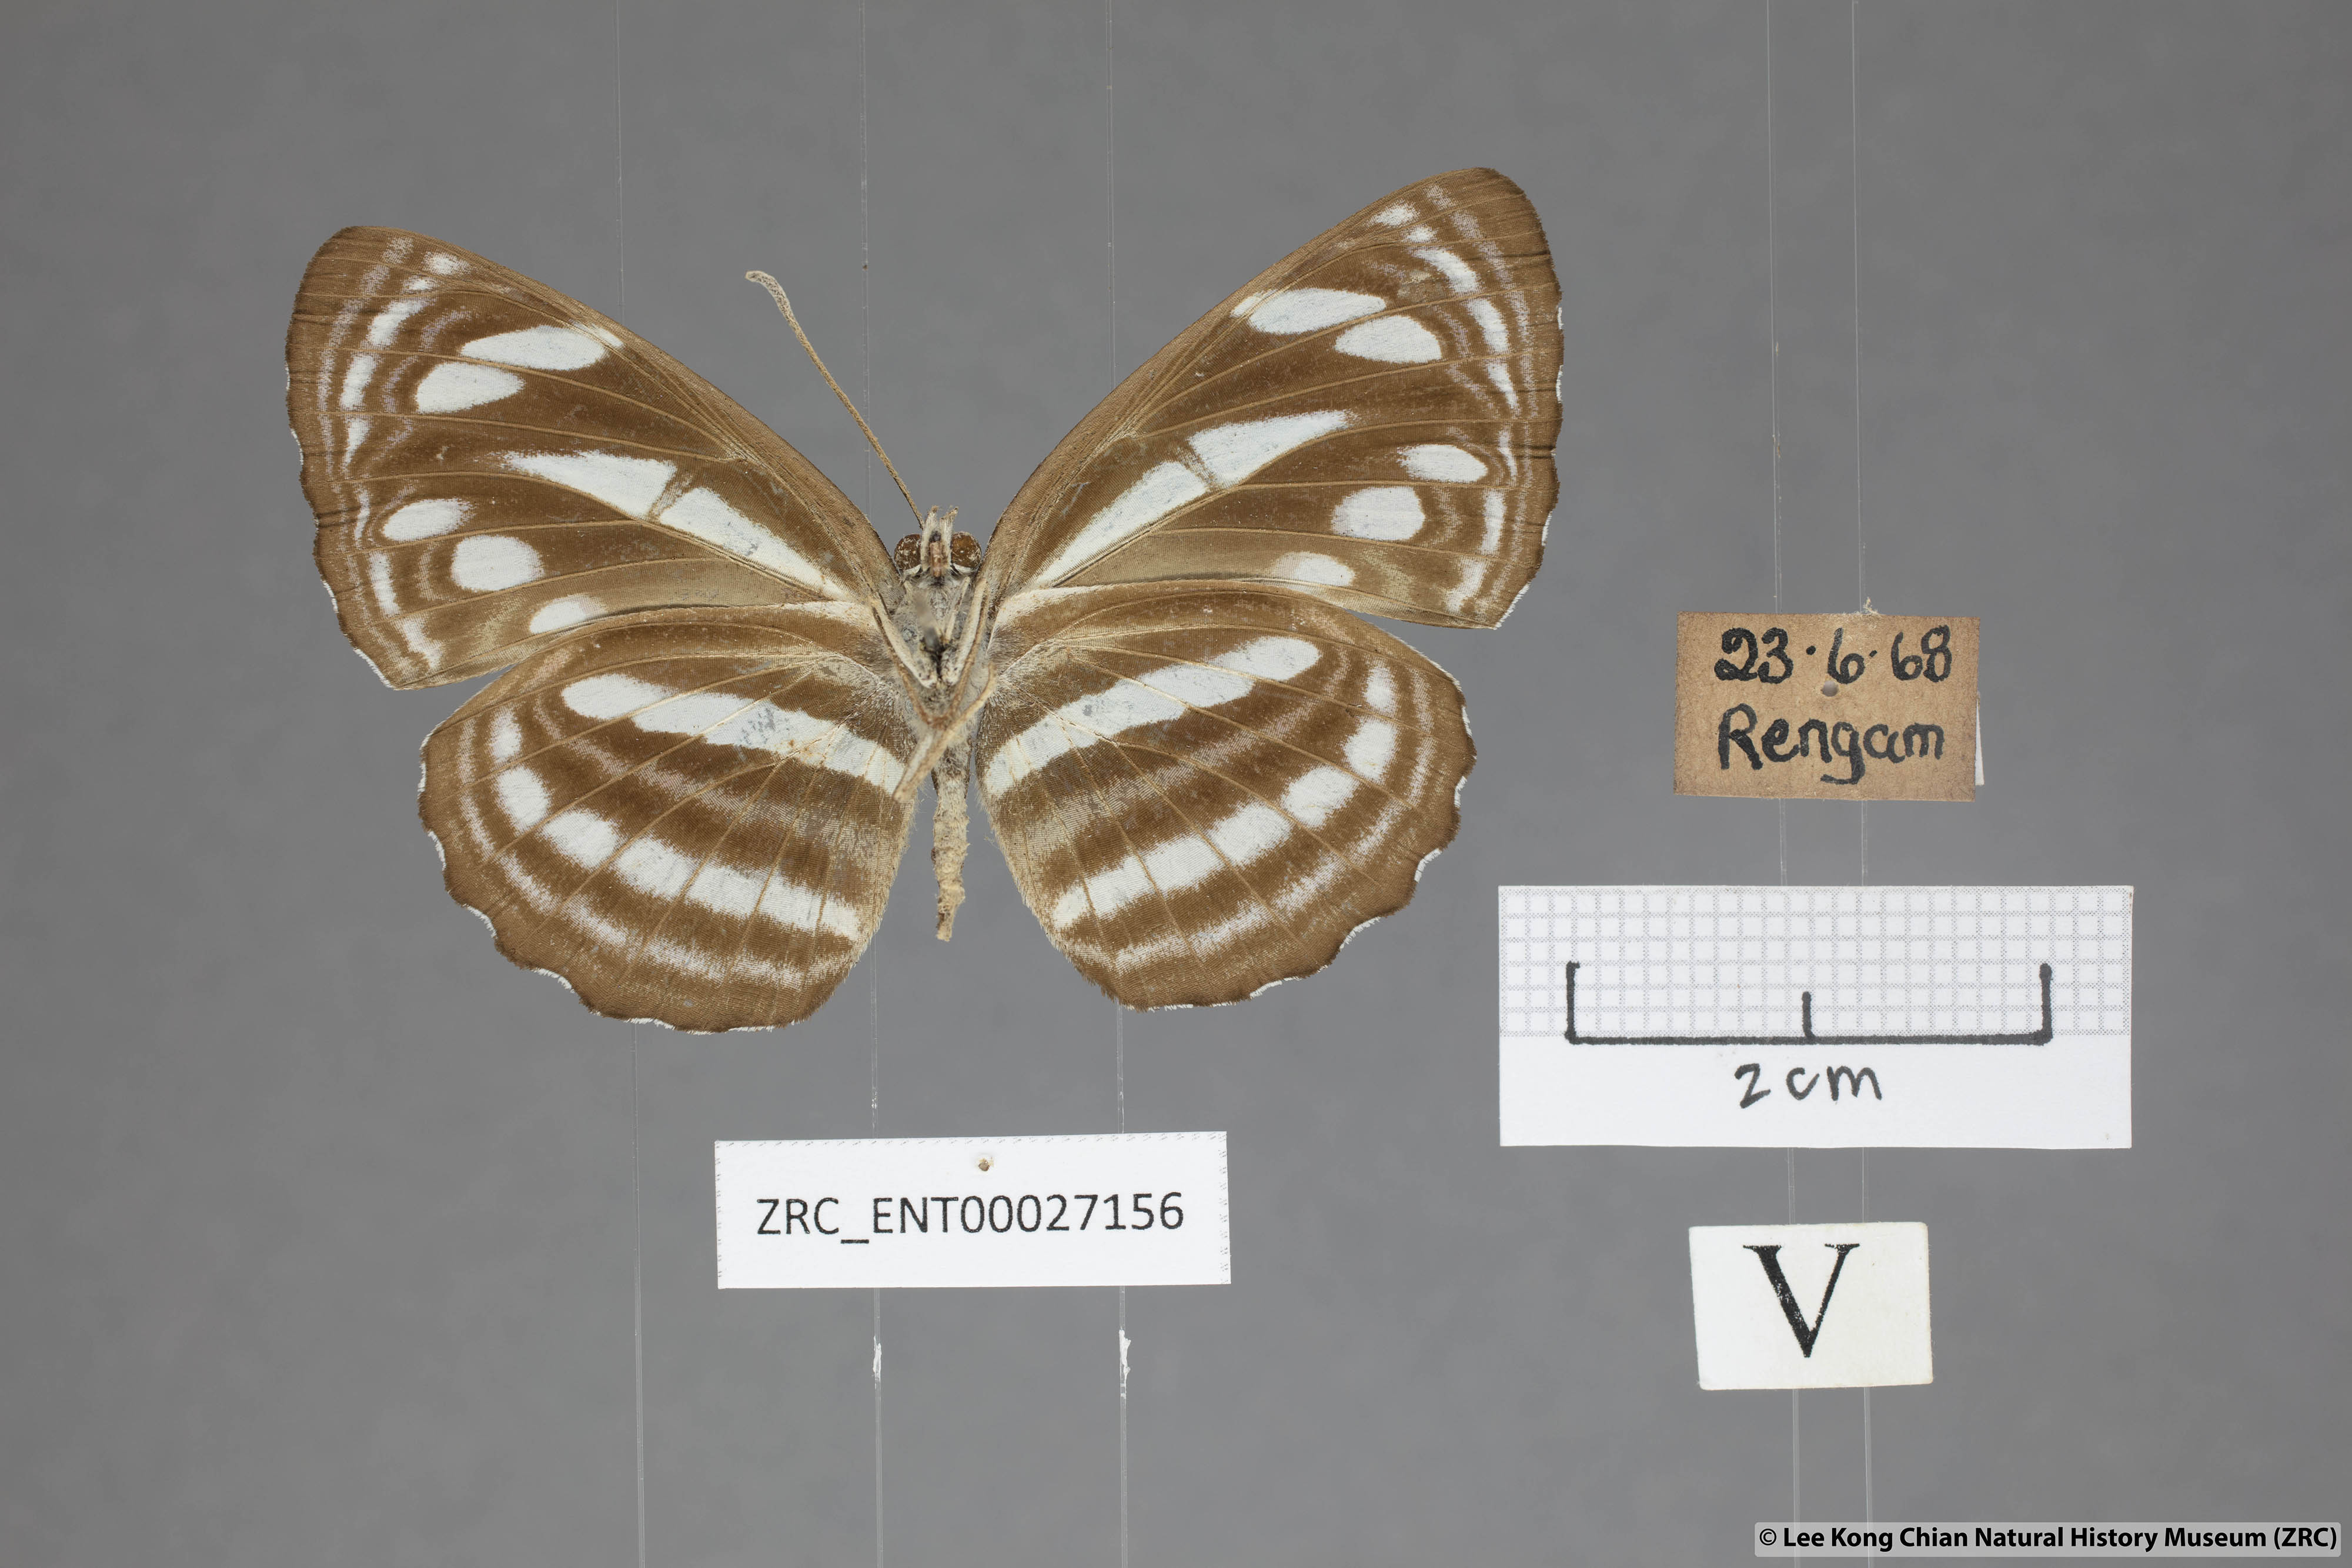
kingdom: Animalia
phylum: Arthropoda
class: Insecta
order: Lepidoptera
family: Nymphalidae
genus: Neptis
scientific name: Neptis leucoporus
